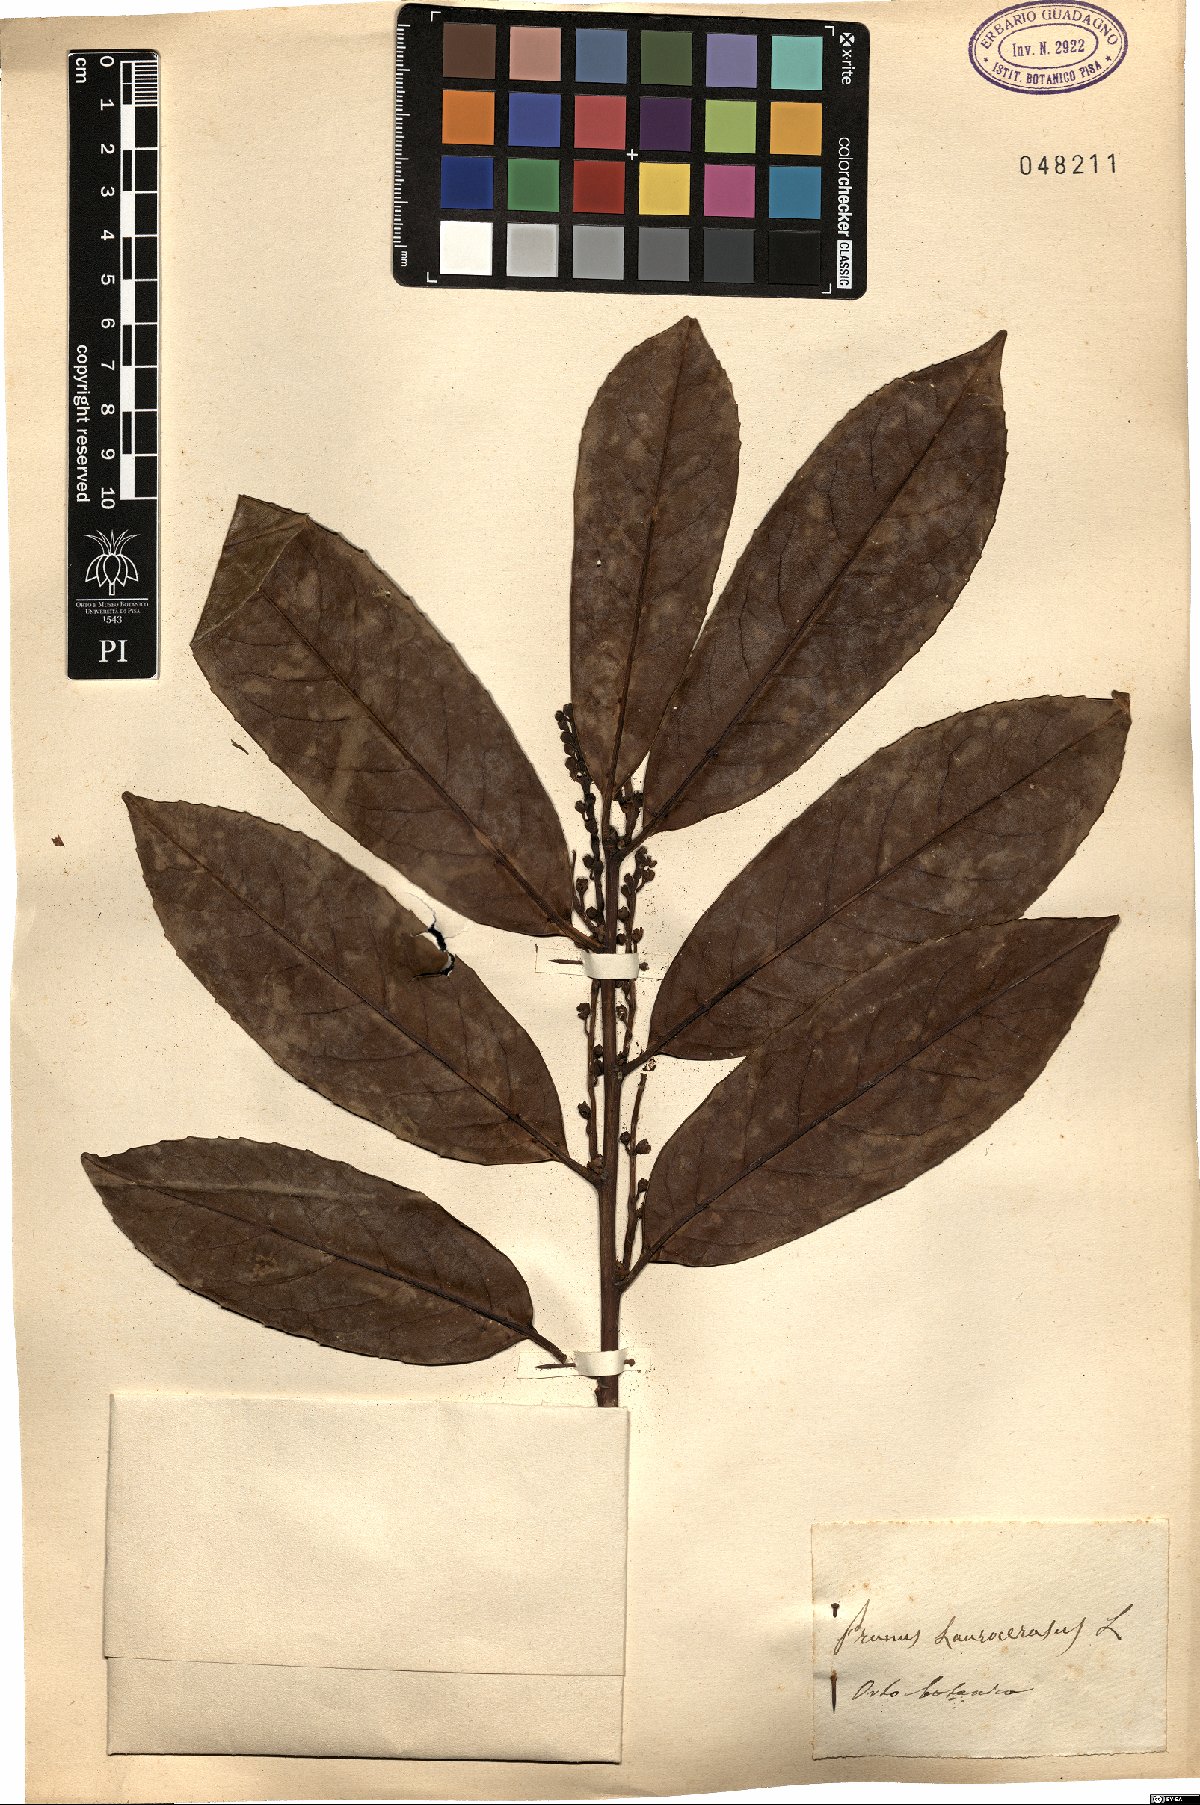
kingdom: Plantae
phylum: Tracheophyta
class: Magnoliopsida
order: Rosales
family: Rosaceae
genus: Prunus
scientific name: Prunus laurocerasus
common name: Cherry laurel
